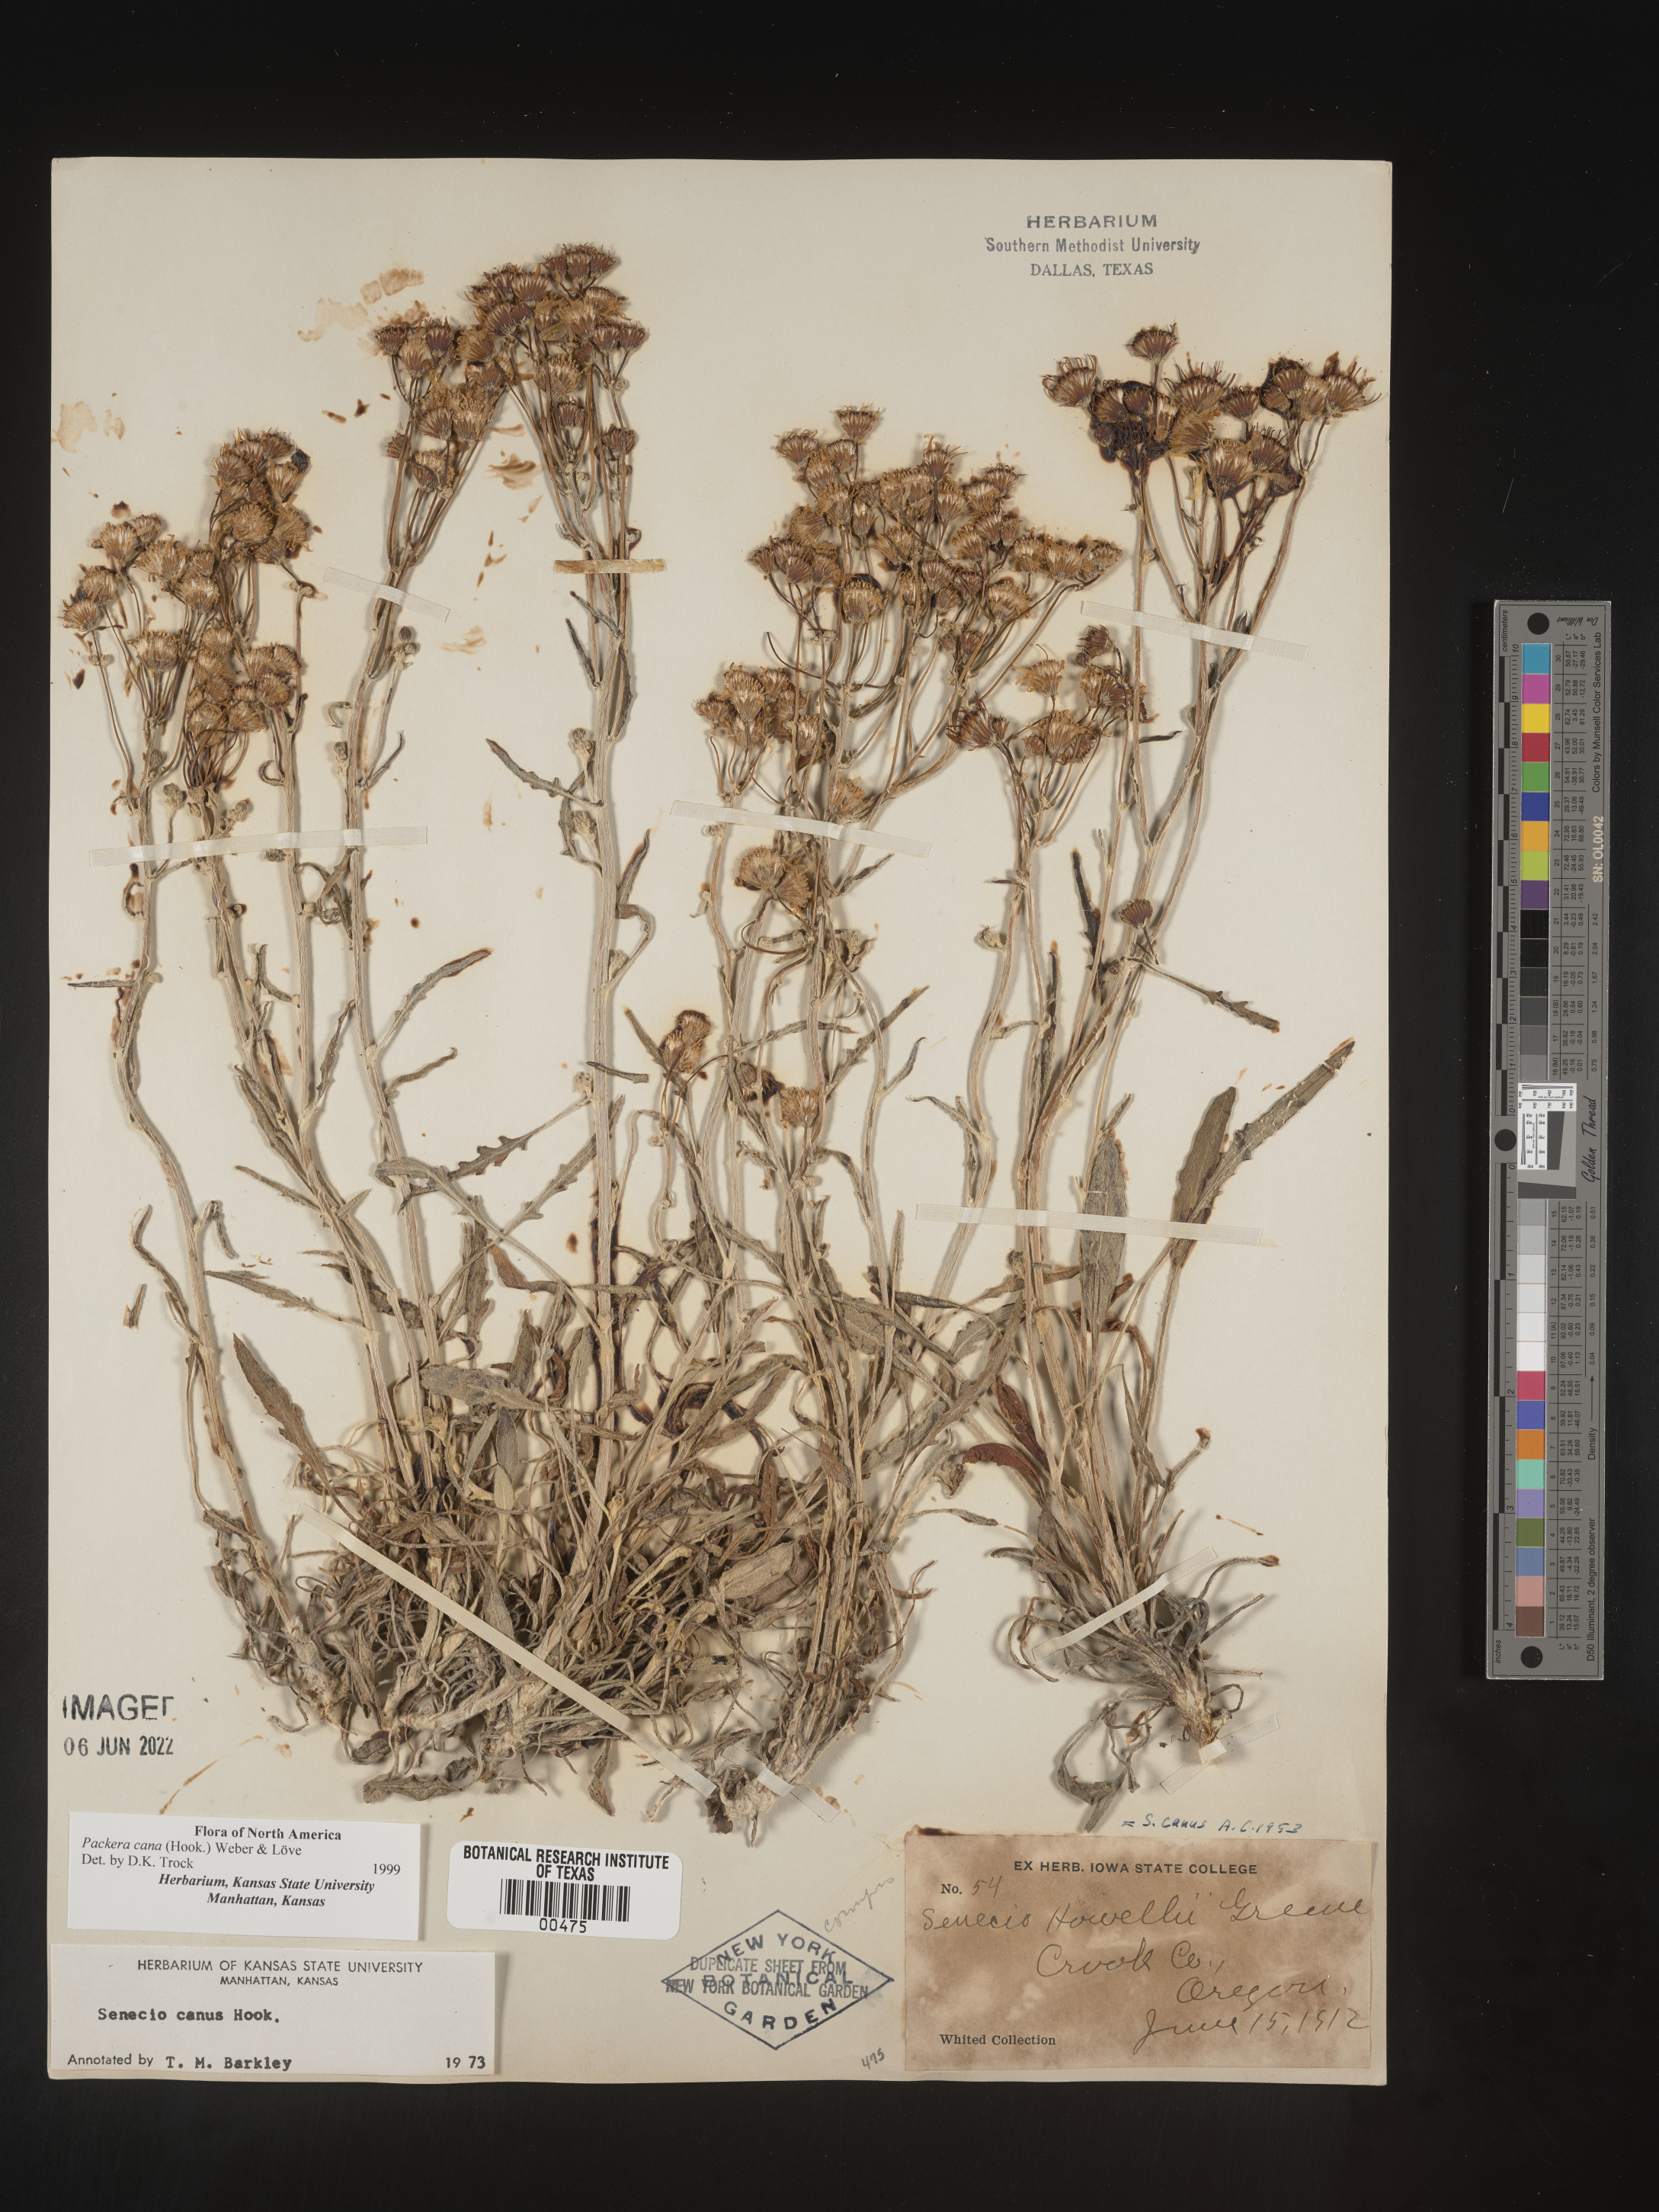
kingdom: Plantae
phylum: Tracheophyta
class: Magnoliopsida
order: Asterales
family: Asteraceae
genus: Packera
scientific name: Packera cana
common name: Woolly groundsel
